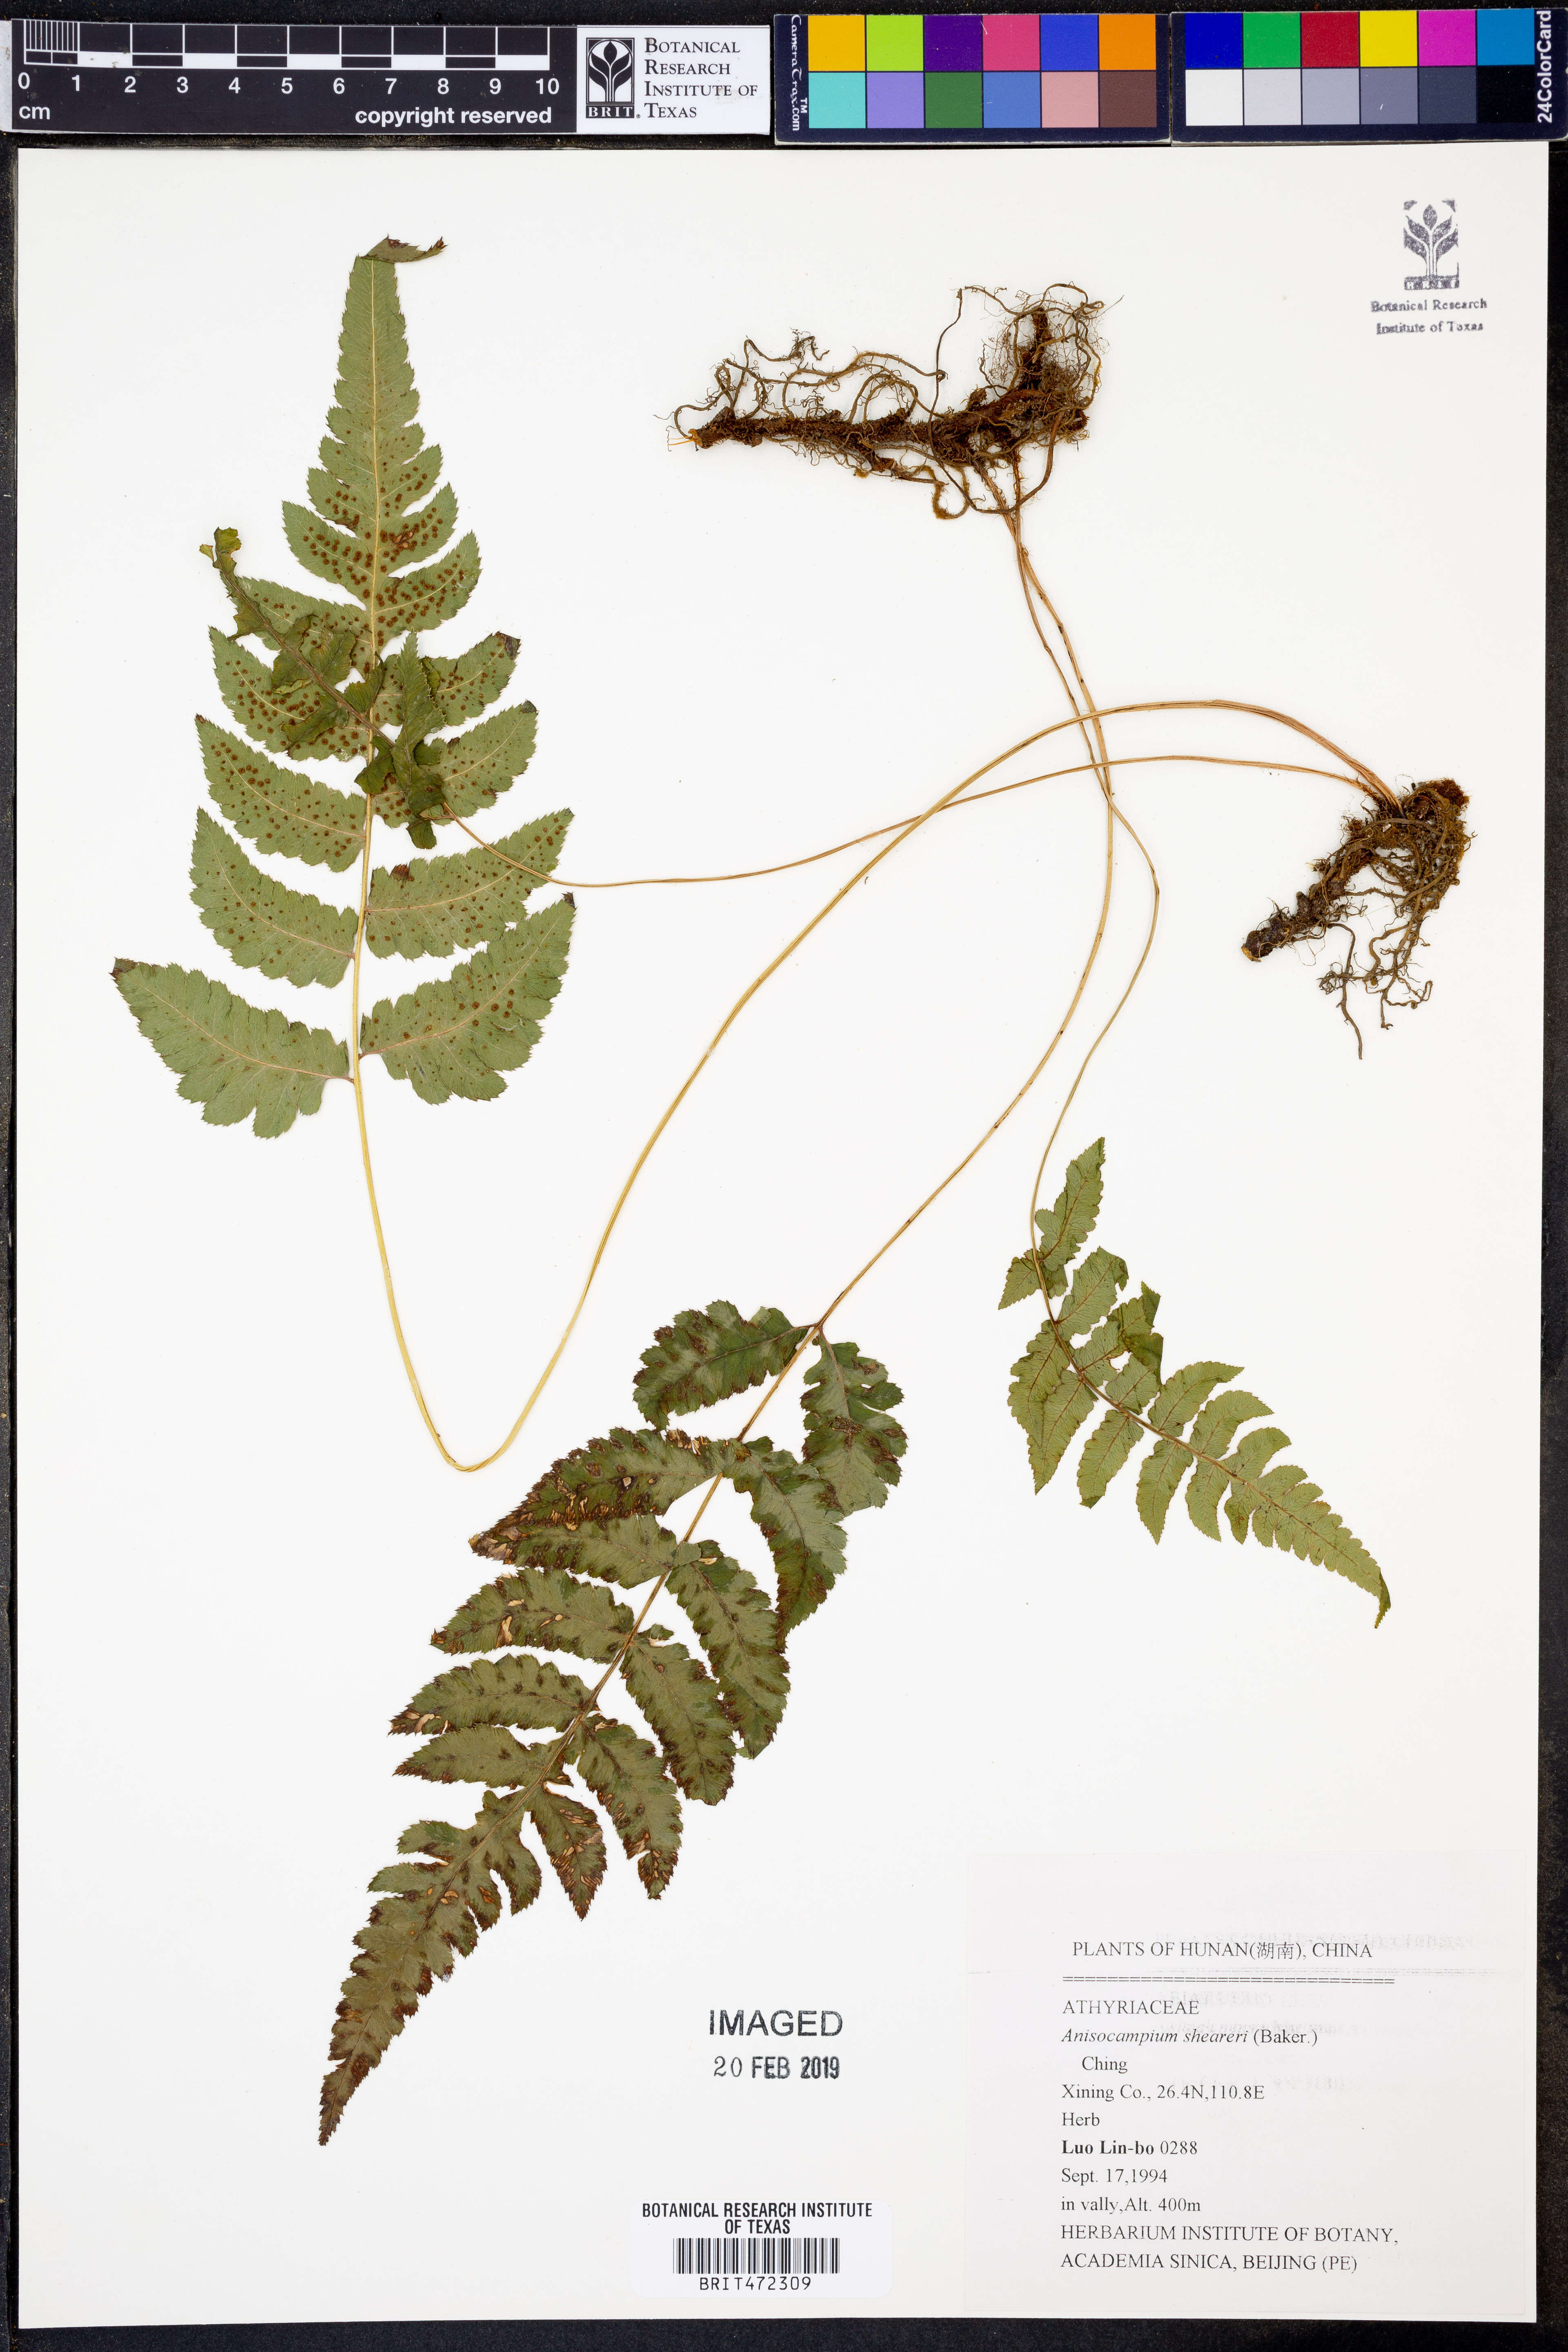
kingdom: Plantae
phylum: Tracheophyta
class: Polypodiopsida
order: Polypodiales
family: Athyriaceae
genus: Anisocampium
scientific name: Anisocampium sheareri
